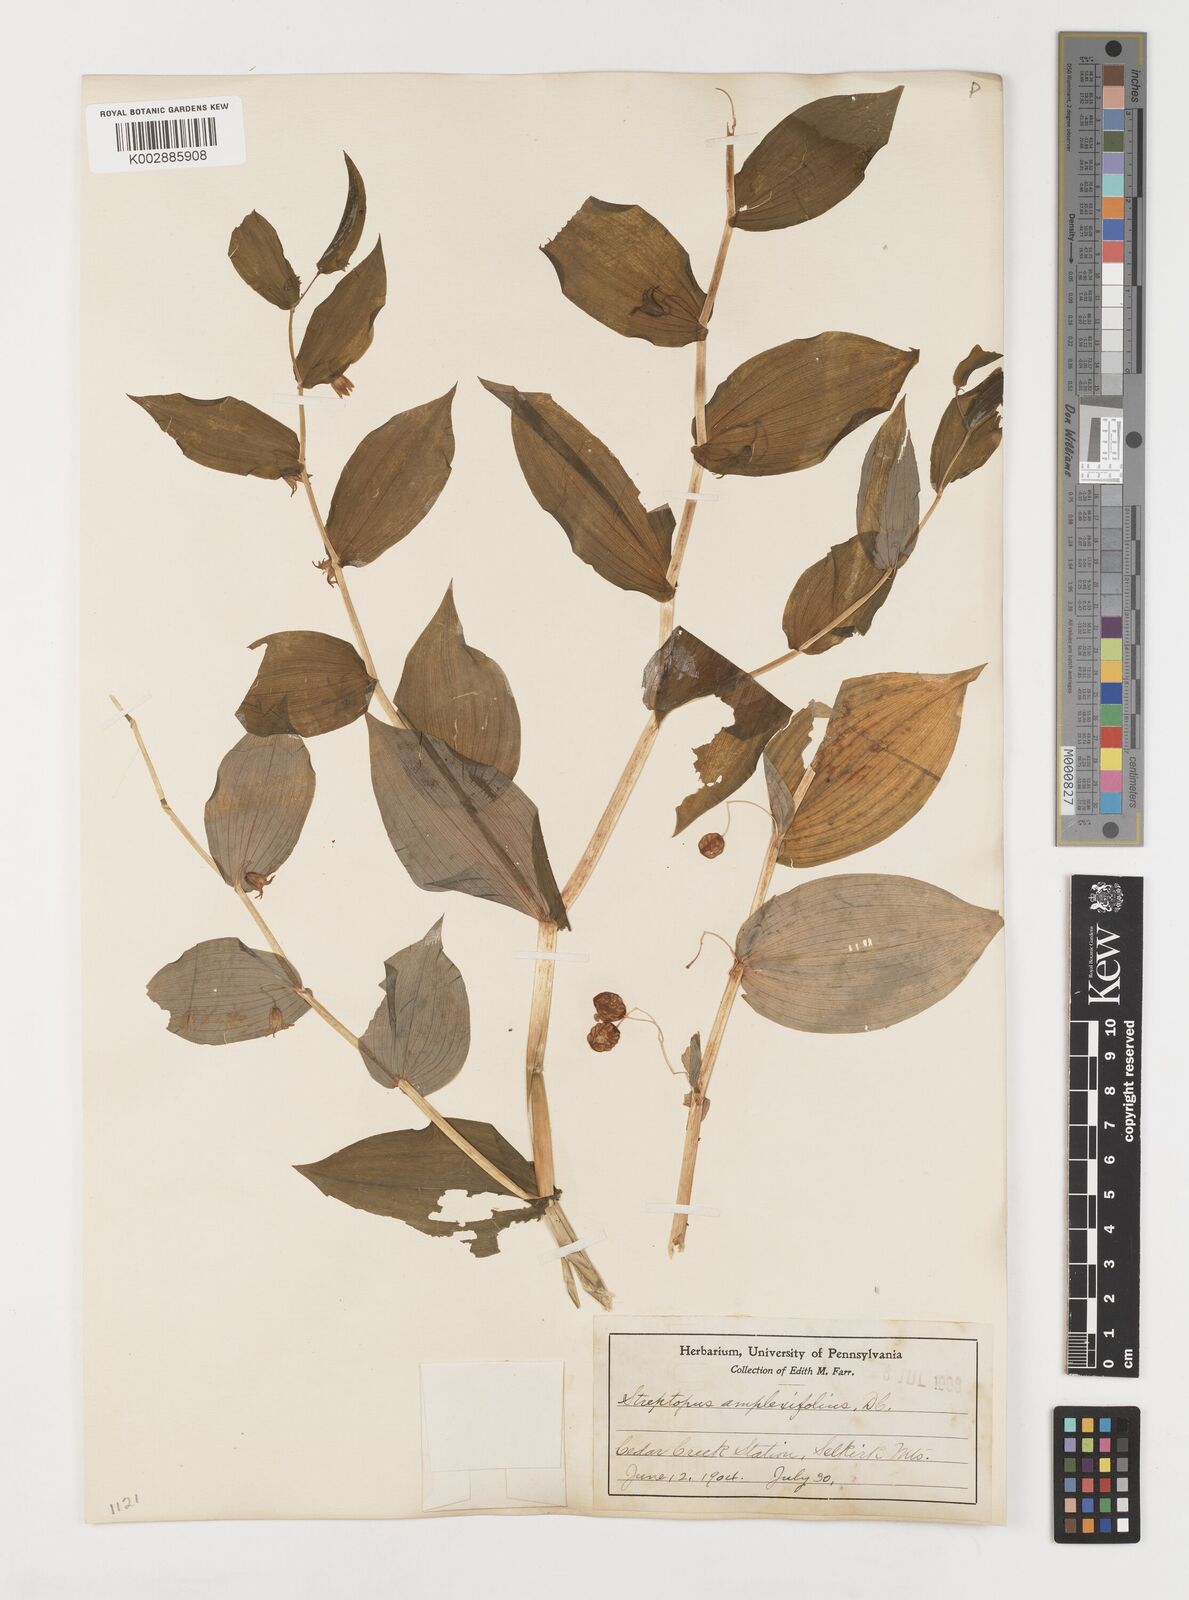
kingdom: Plantae
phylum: Tracheophyta
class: Liliopsida
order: Liliales
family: Liliaceae
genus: Streptopus
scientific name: Streptopus amplexifolius
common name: Clasp twisted stalk
